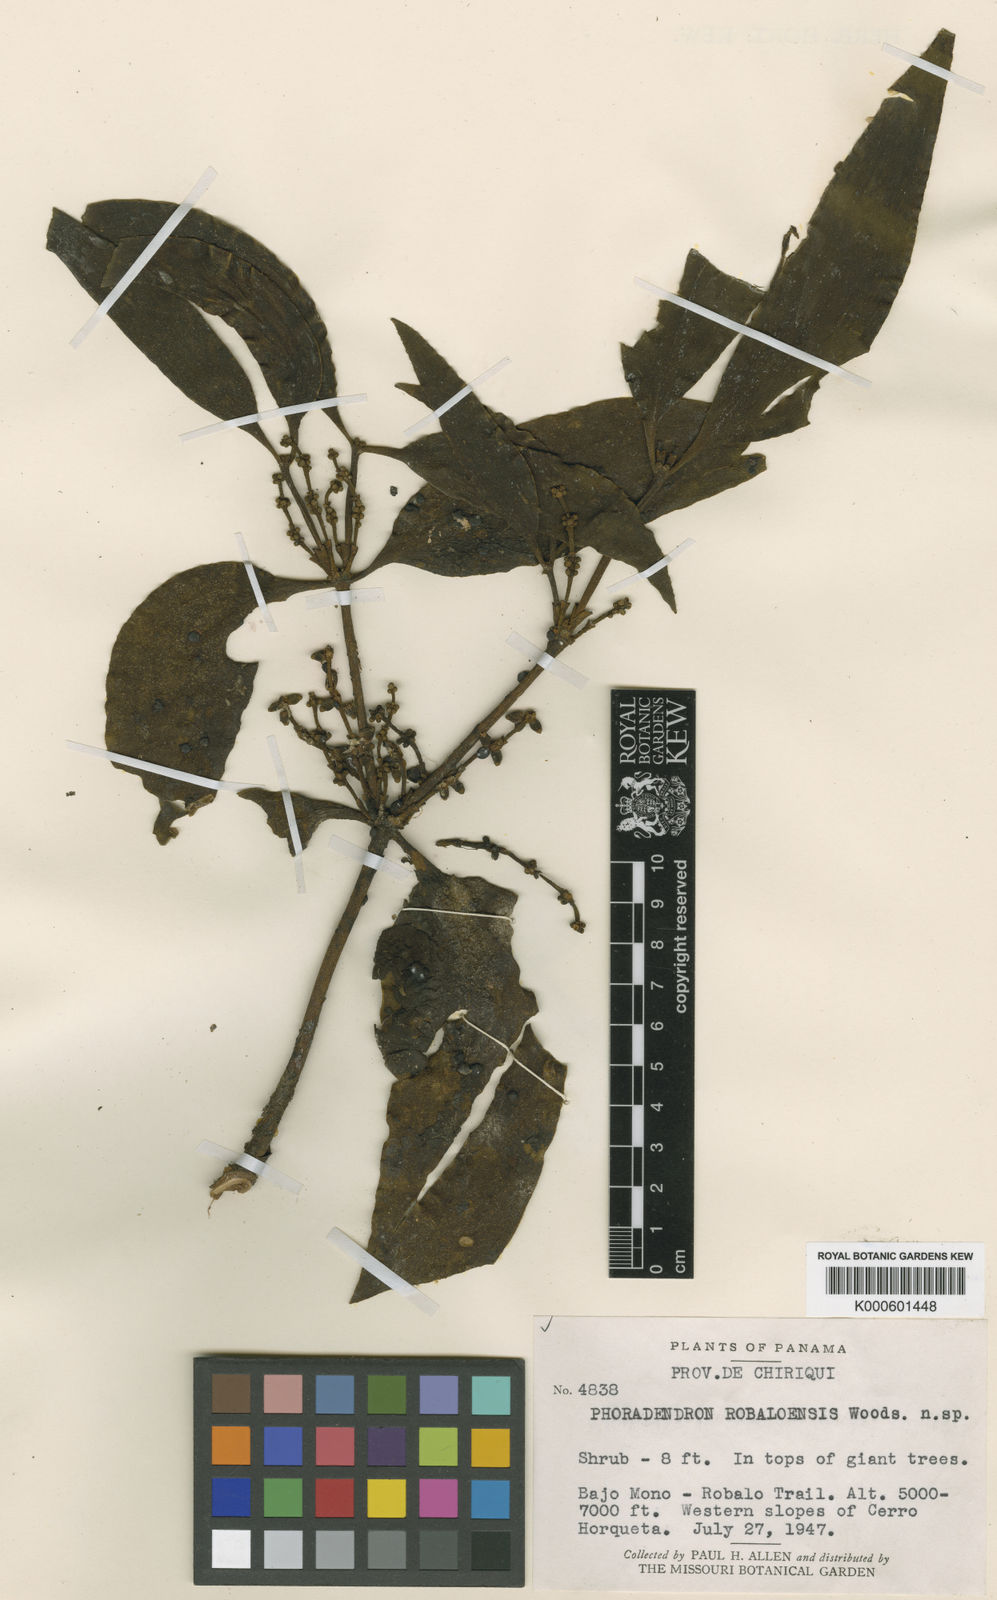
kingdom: Plantae
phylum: Tracheophyta
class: Magnoliopsida
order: Santalales
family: Viscaceae
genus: Phoradendron
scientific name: Phoradendron robaloense
